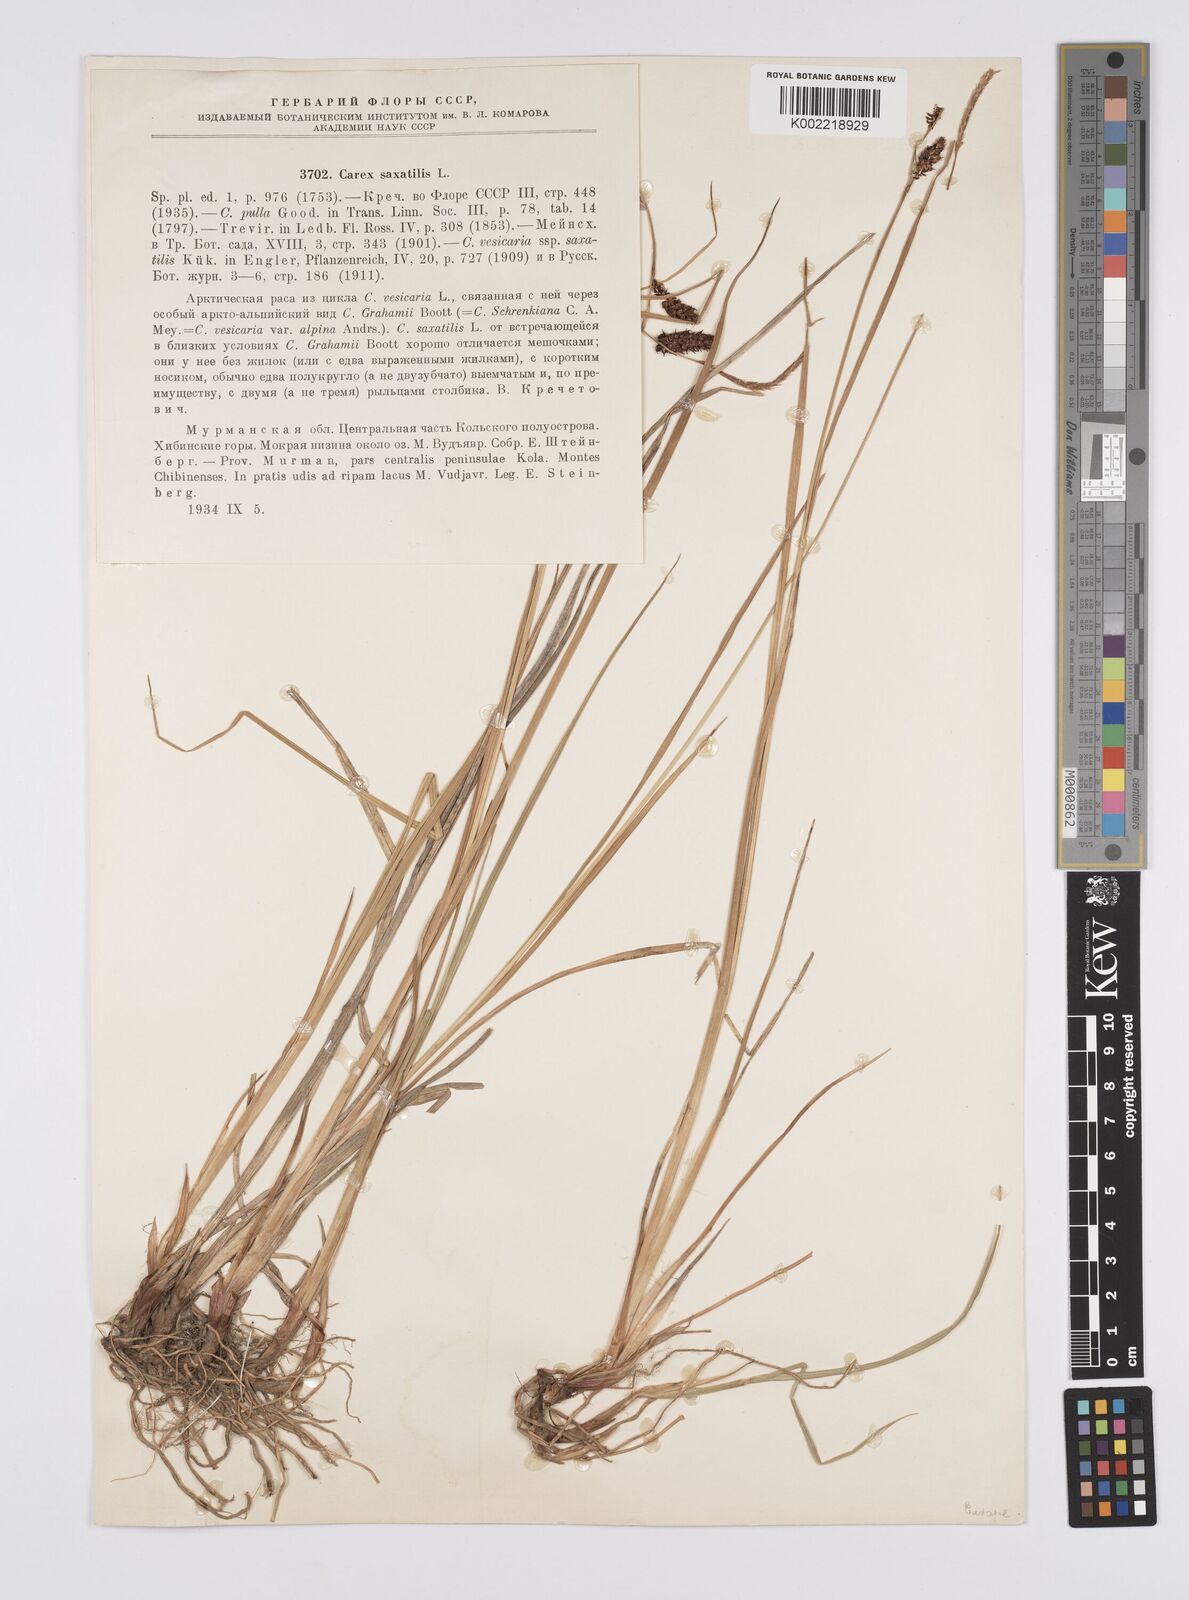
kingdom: Plantae
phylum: Tracheophyta
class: Liliopsida
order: Poales
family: Cyperaceae
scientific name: Cyperaceae
